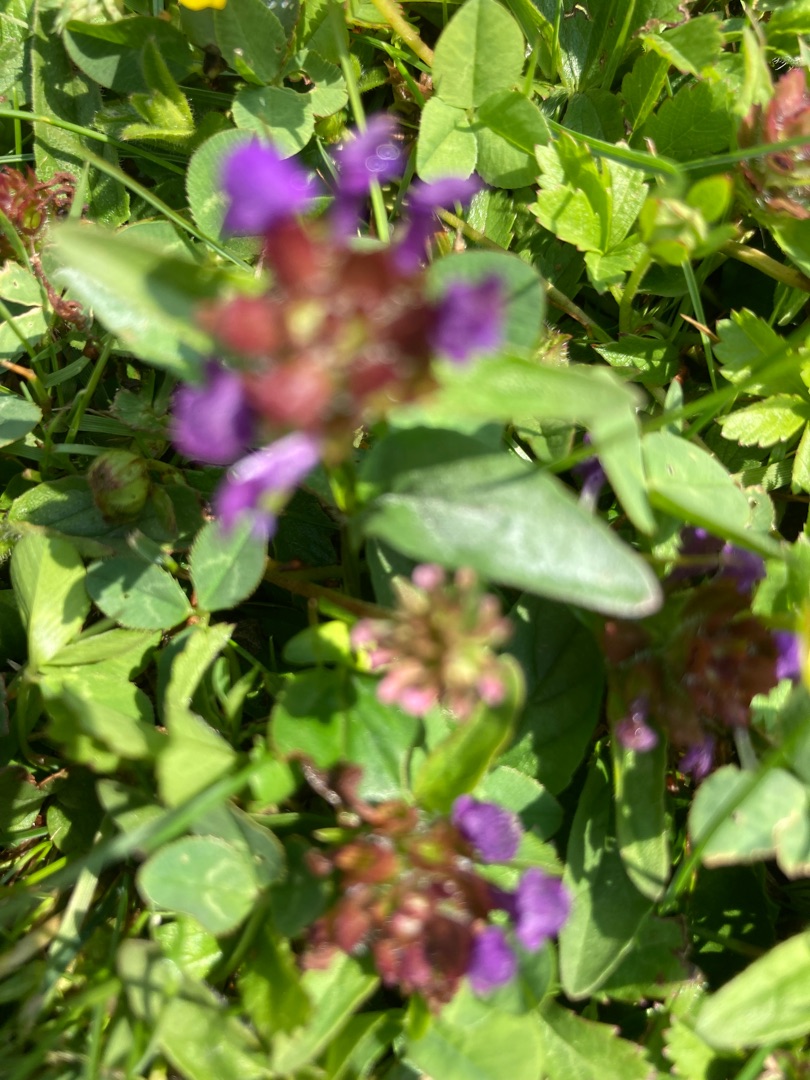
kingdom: Plantae
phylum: Tracheophyta
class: Magnoliopsida
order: Lamiales
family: Lamiaceae
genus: Prunella
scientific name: Prunella vulgaris
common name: Almindelig brunelle
